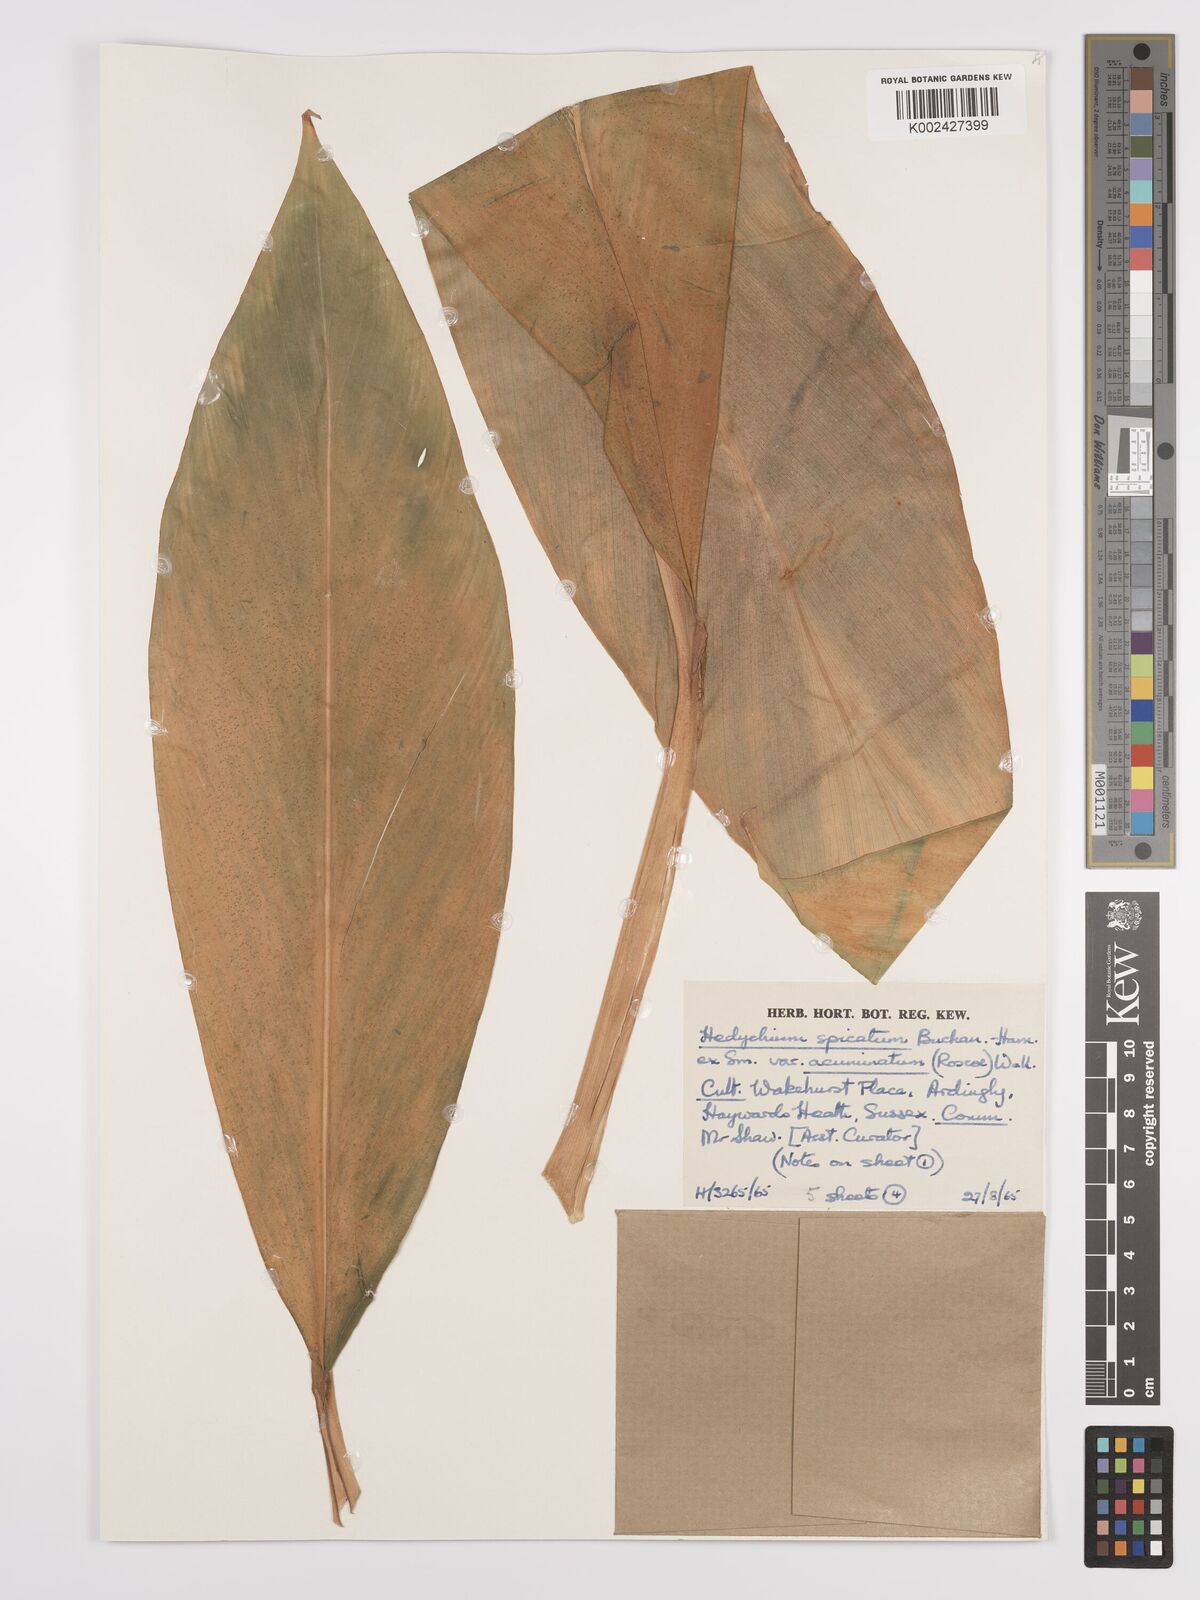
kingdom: Plantae
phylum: Tracheophyta
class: Liliopsida
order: Zingiberales
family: Zingiberaceae
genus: Hedychium
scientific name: Hedychium
